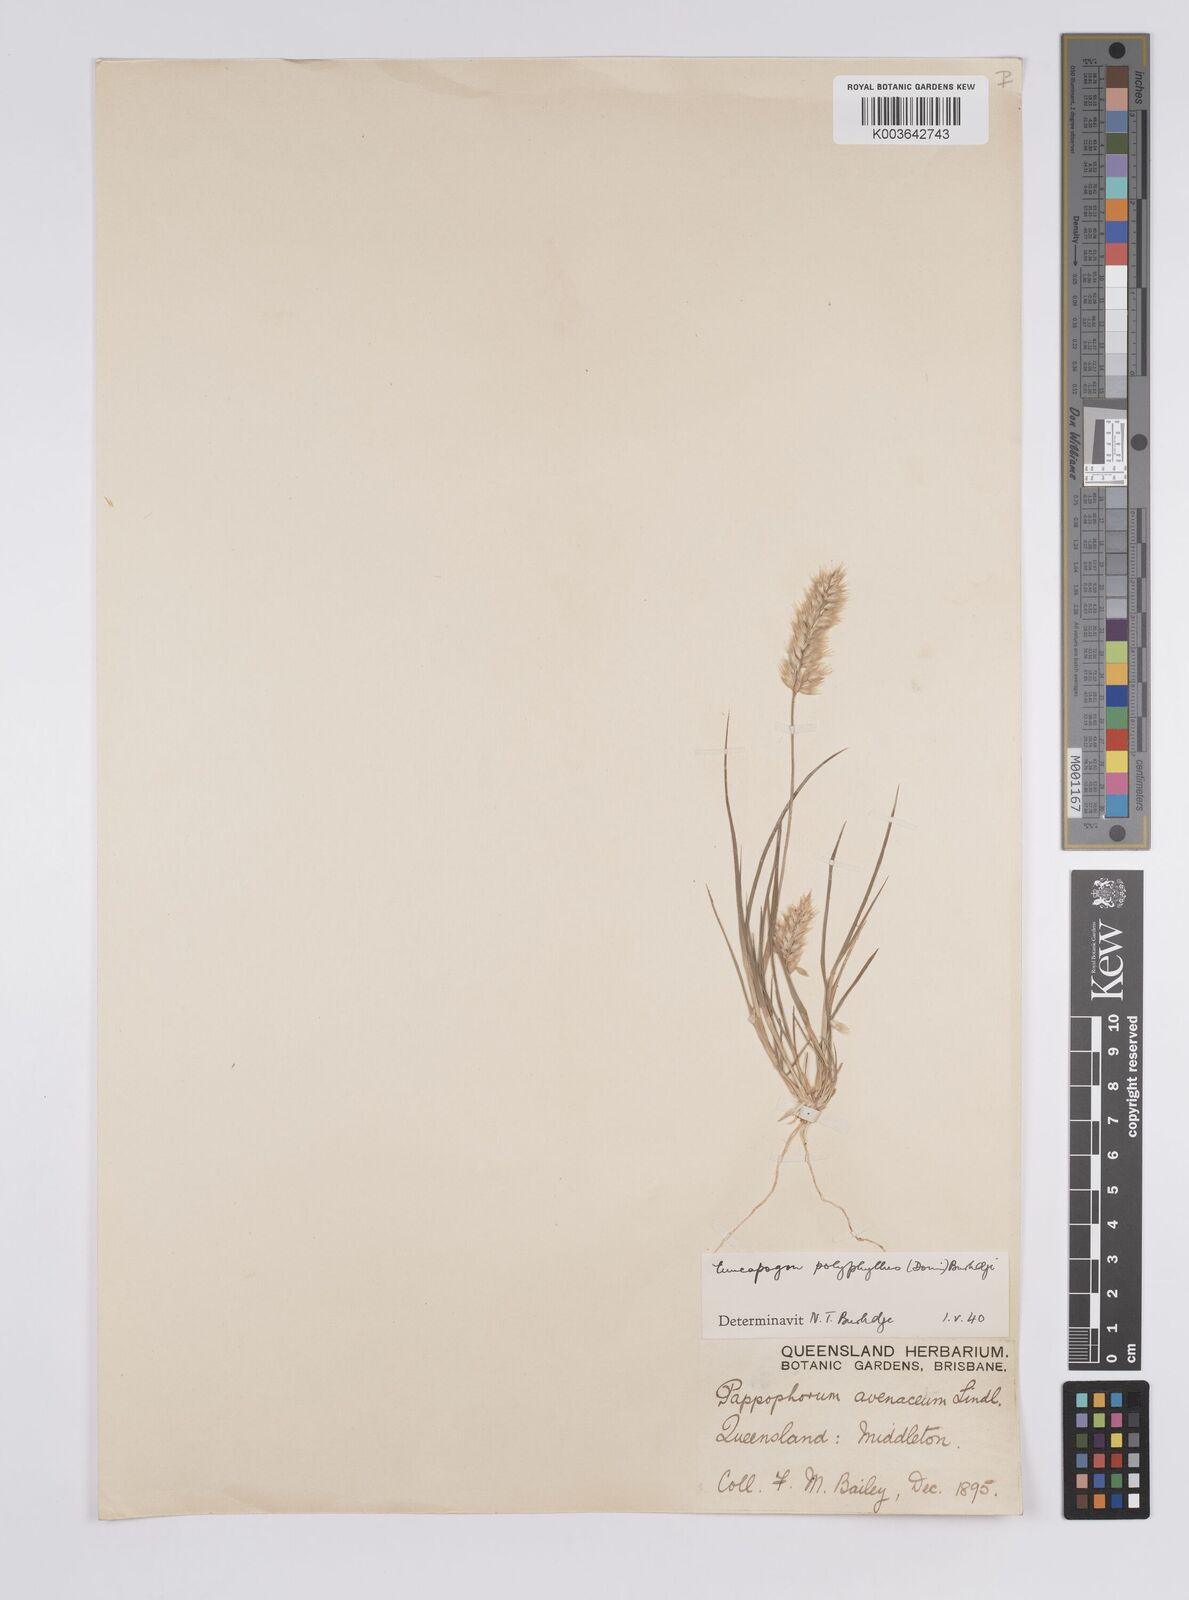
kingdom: Plantae
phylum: Tracheophyta
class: Liliopsida
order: Poales
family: Poaceae
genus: Enneapogon
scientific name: Enneapogon polyphyllus
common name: Leafy nineawn
